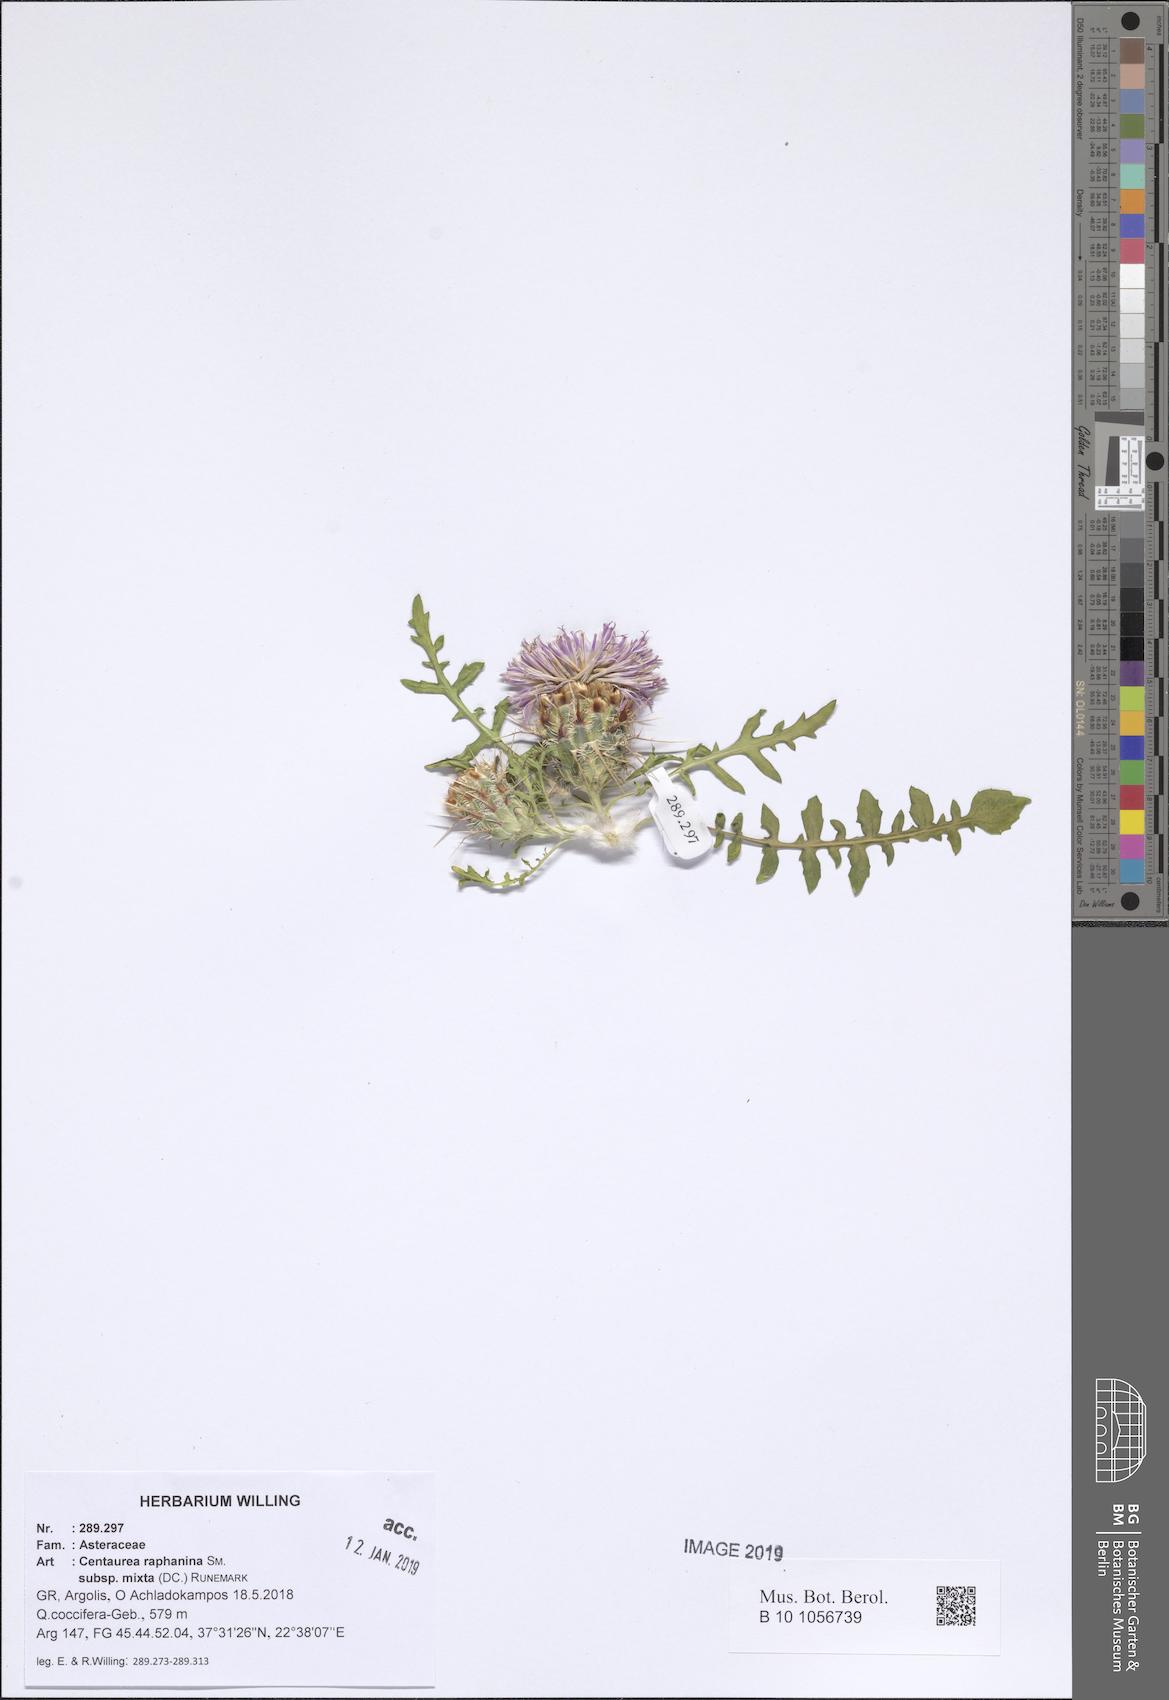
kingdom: Plantae
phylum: Tracheophyta
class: Magnoliopsida
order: Asterales
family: Asteraceae
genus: Centaurea
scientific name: Centaurea raphanina
